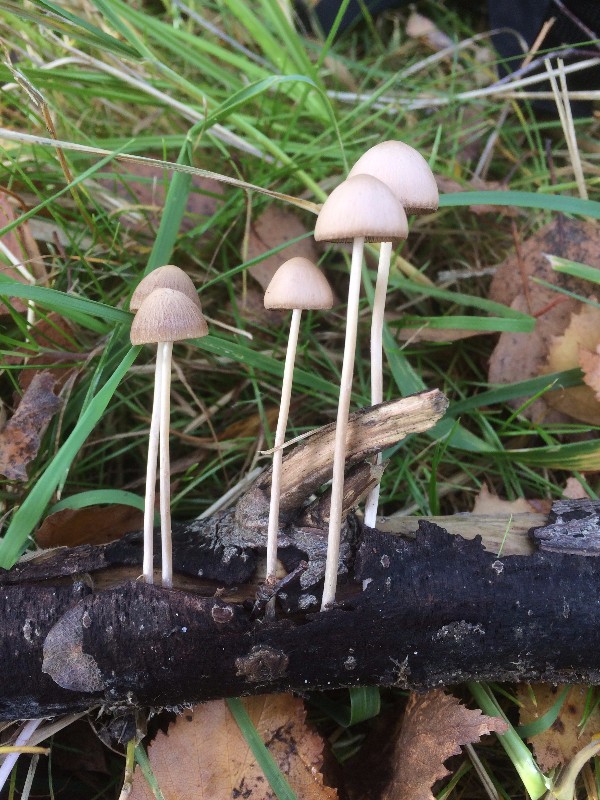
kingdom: Fungi
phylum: Basidiomycota
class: Agaricomycetes
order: Agaricales
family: Psathyrellaceae
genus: Psathyrella
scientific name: Psathyrella pseudogracilis
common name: slank mørkhat
